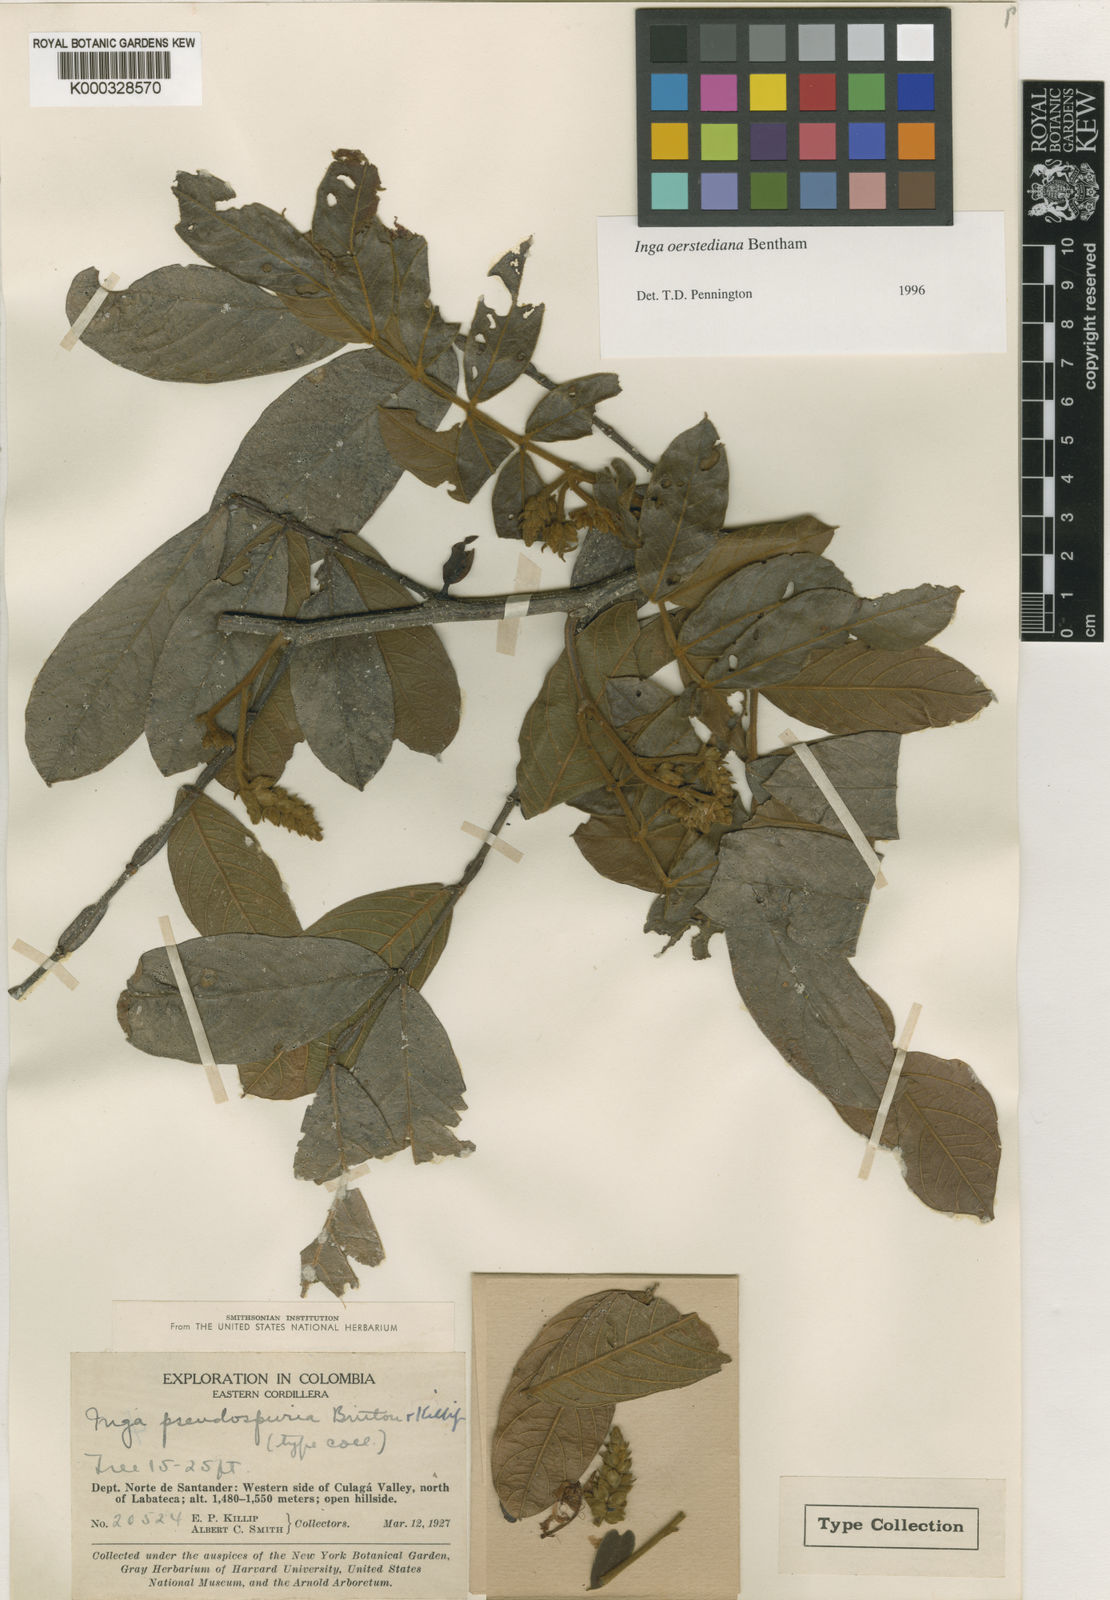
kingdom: Plantae
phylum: Tracheophyta
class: Magnoliopsida
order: Fabales
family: Fabaceae
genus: Inga
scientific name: Inga oerstediana
